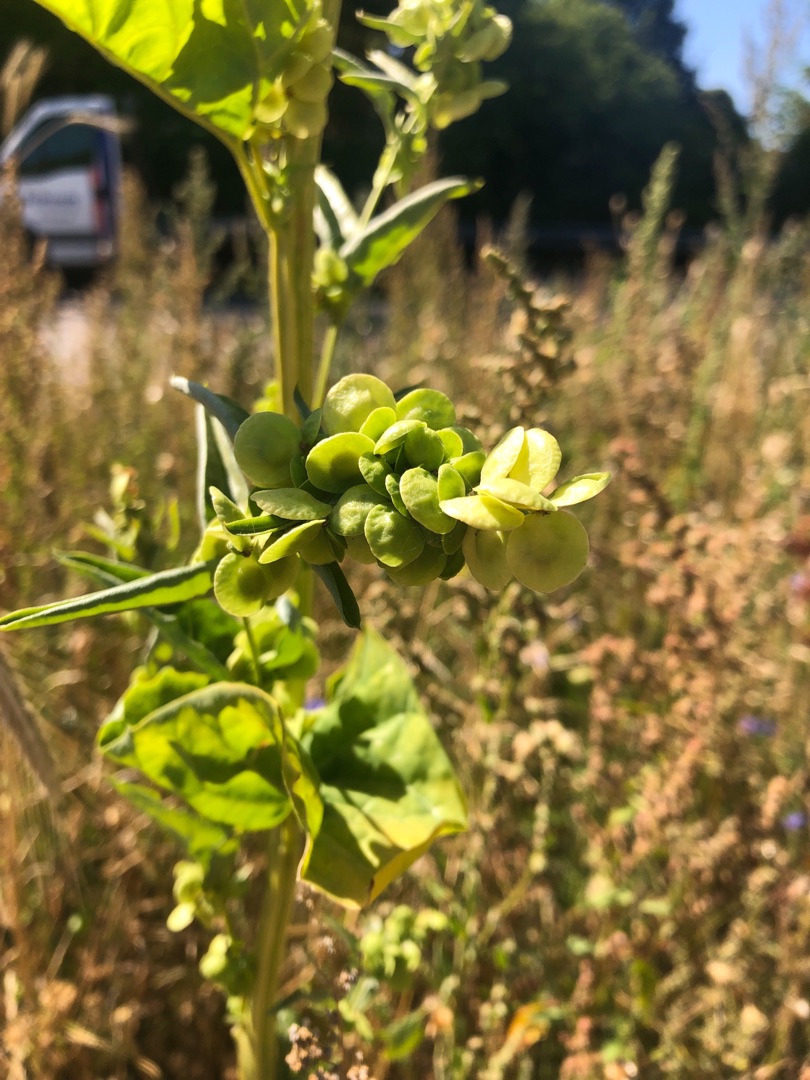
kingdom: Plantae
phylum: Tracheophyta
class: Magnoliopsida
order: Caryophyllales
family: Amaranthaceae
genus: Atriplex
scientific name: Atriplex hortensis
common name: Have-mælde
